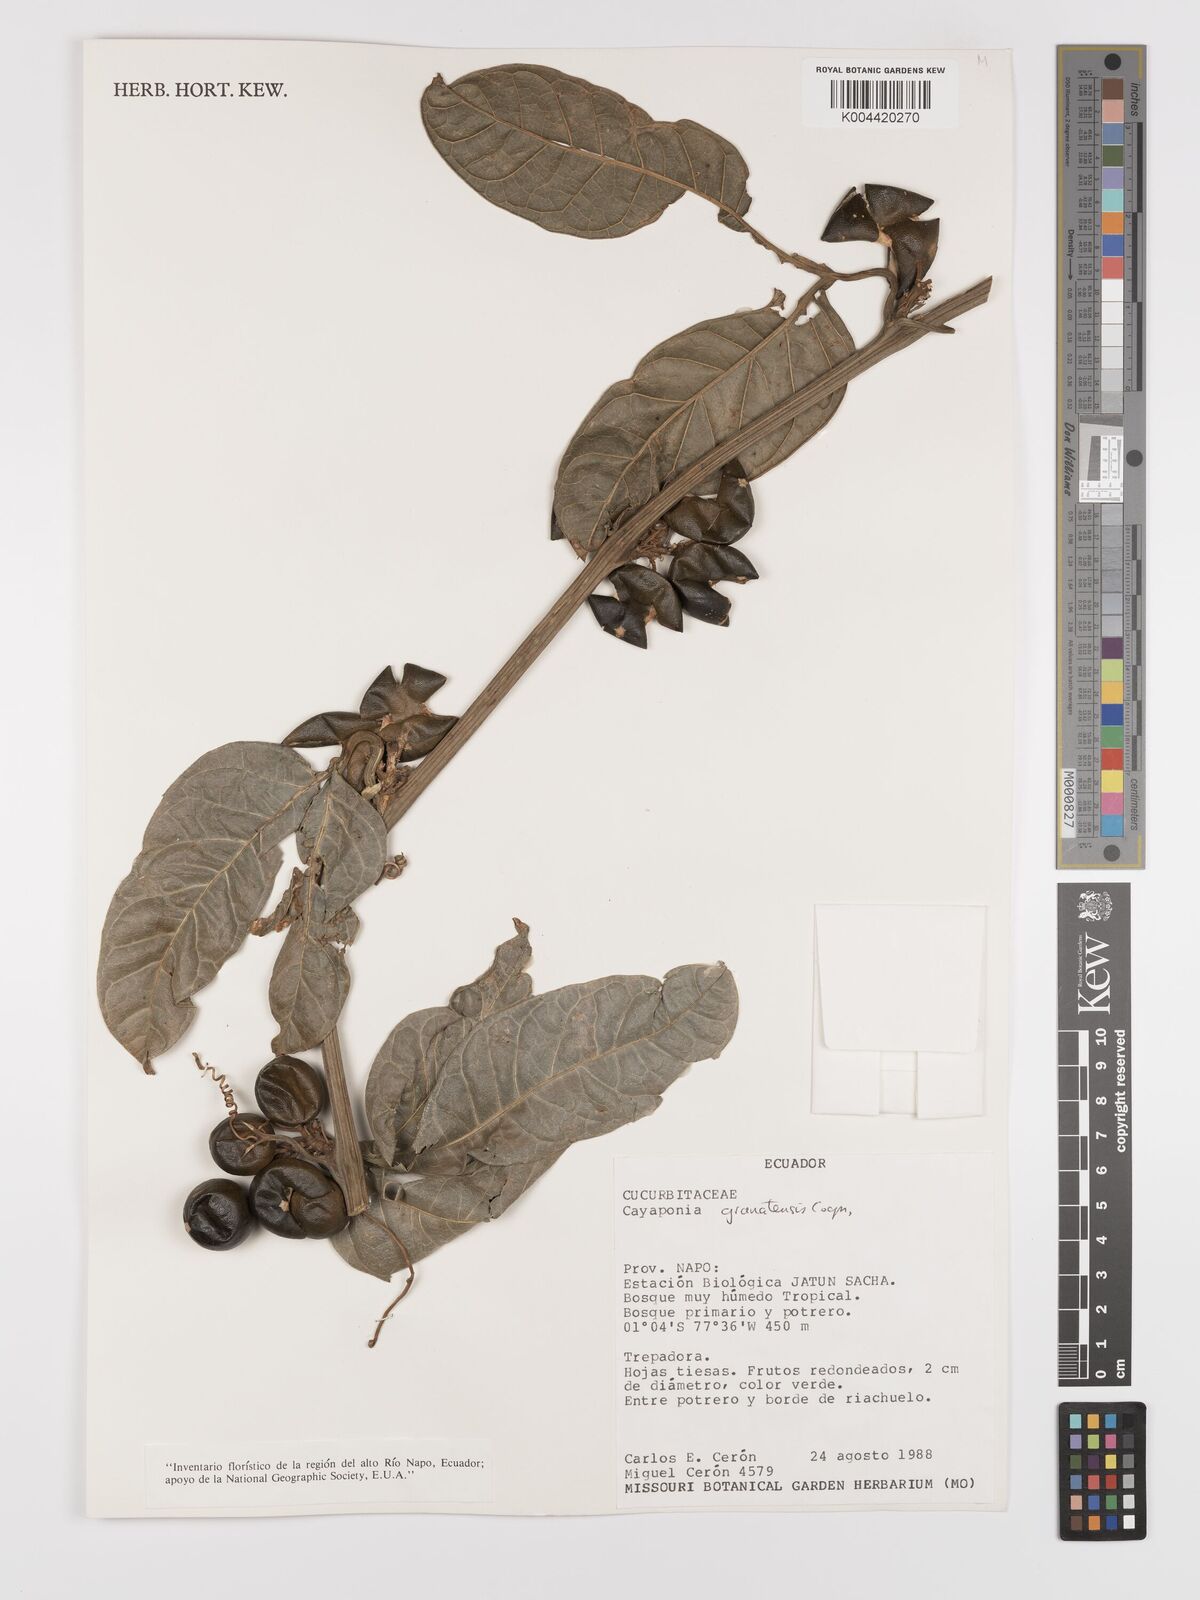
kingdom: Plantae
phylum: Tracheophyta
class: Magnoliopsida
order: Cucurbitales
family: Cucurbitaceae
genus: Cayaponia
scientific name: Cayaponia granatensis
